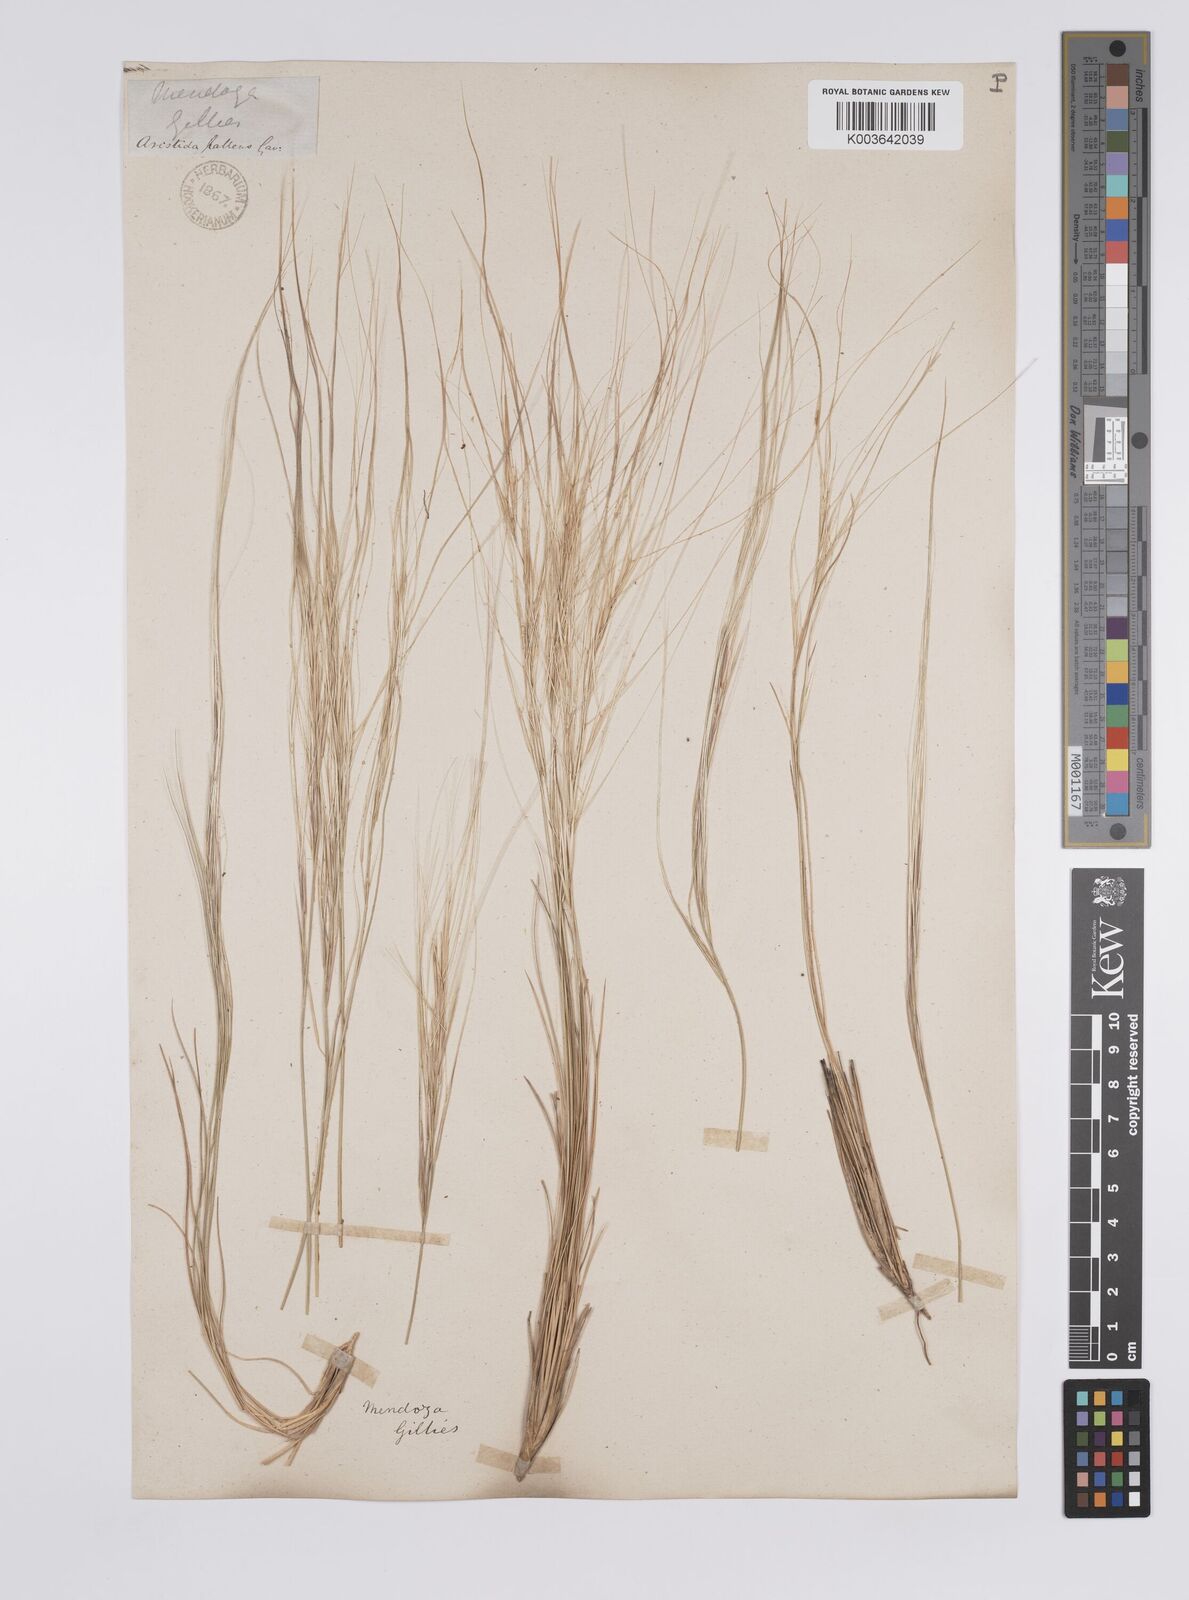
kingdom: Plantae
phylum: Tracheophyta
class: Liliopsida
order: Poales
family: Poaceae
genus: Aristida
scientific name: Aristida pallens
